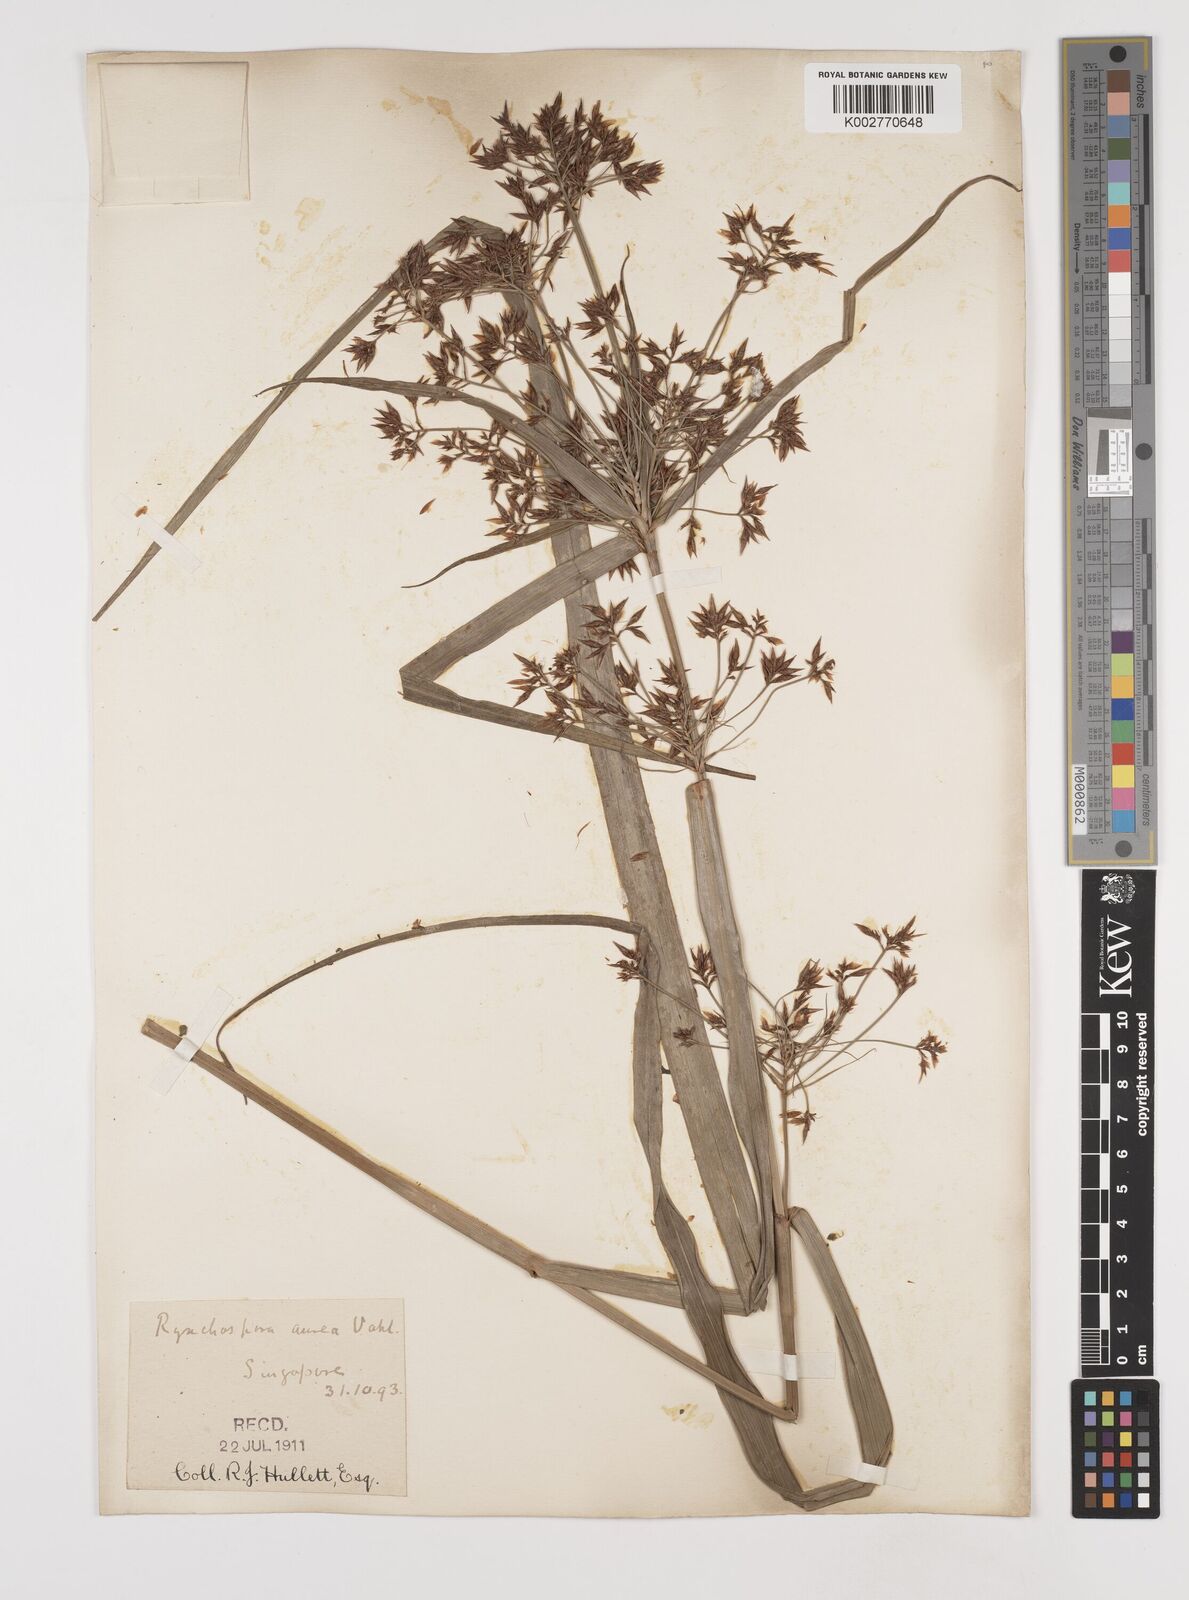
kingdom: Plantae
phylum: Tracheophyta
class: Liliopsida
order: Poales
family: Cyperaceae
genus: Rhynchospora
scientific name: Rhynchospora corymbosa
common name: Golden beak sedge
